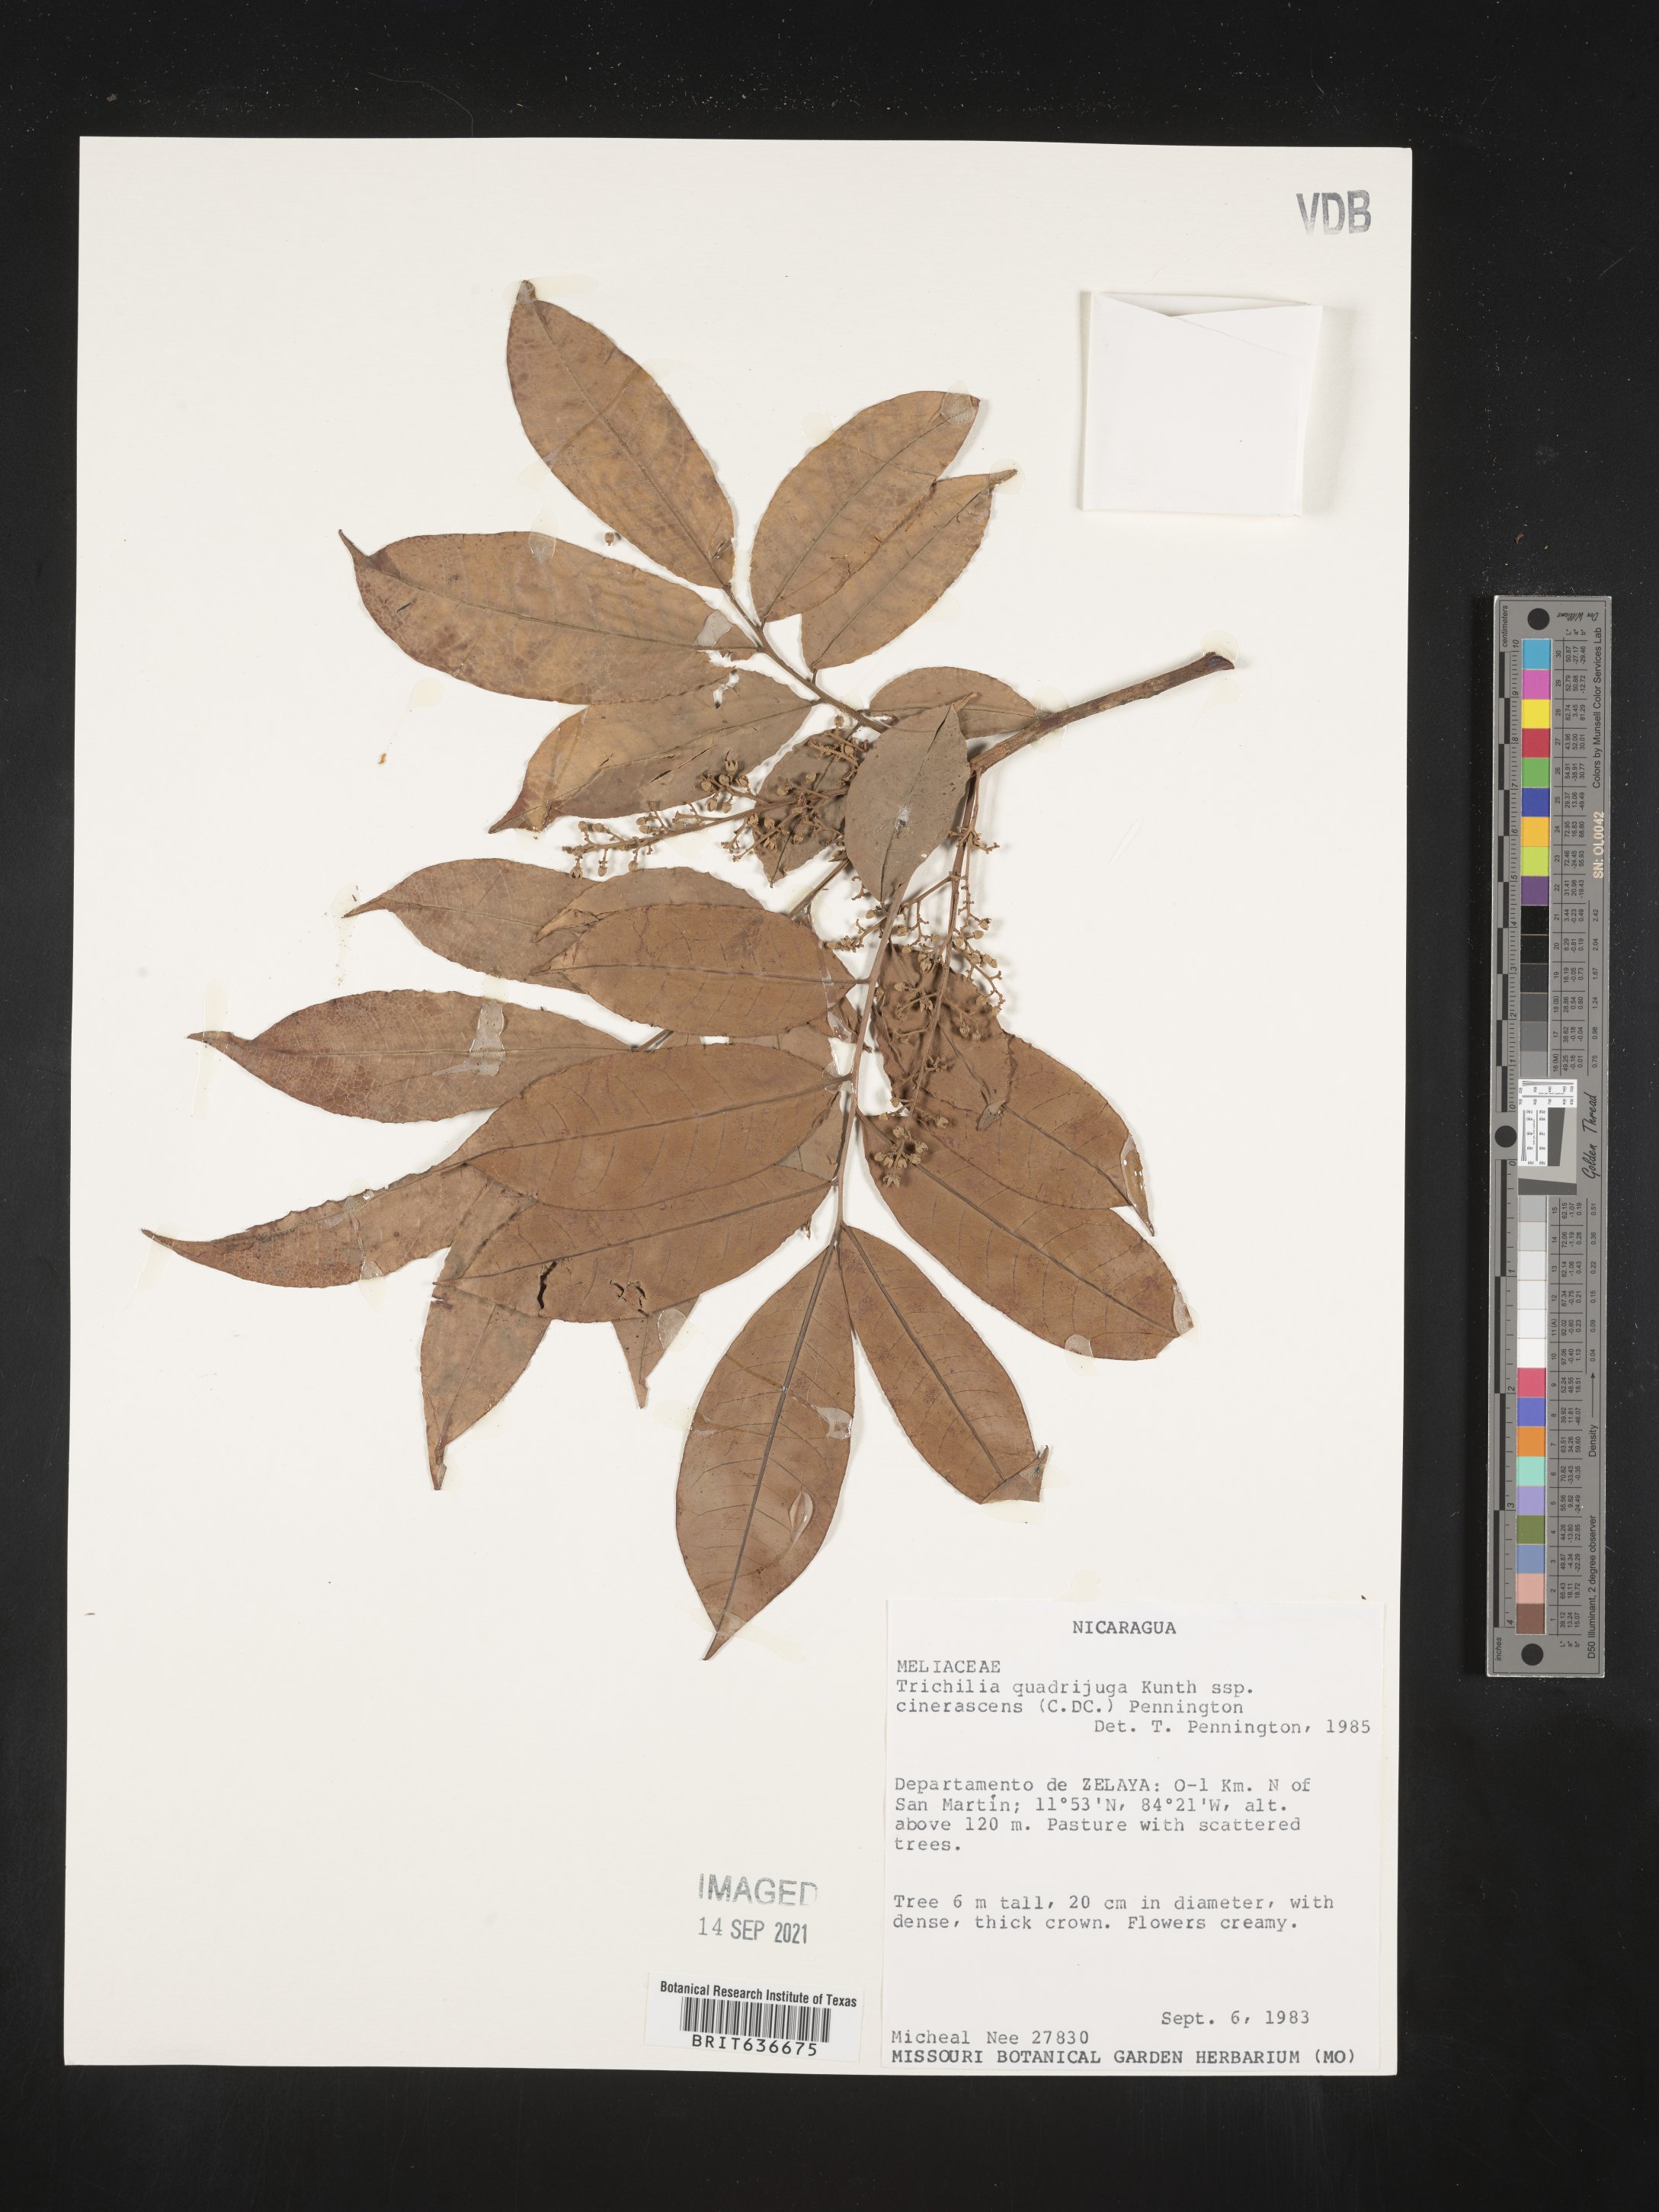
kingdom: Plantae
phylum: Tracheophyta
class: Magnoliopsida
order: Sapindales
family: Meliaceae
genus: Trichilia
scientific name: Trichilia
